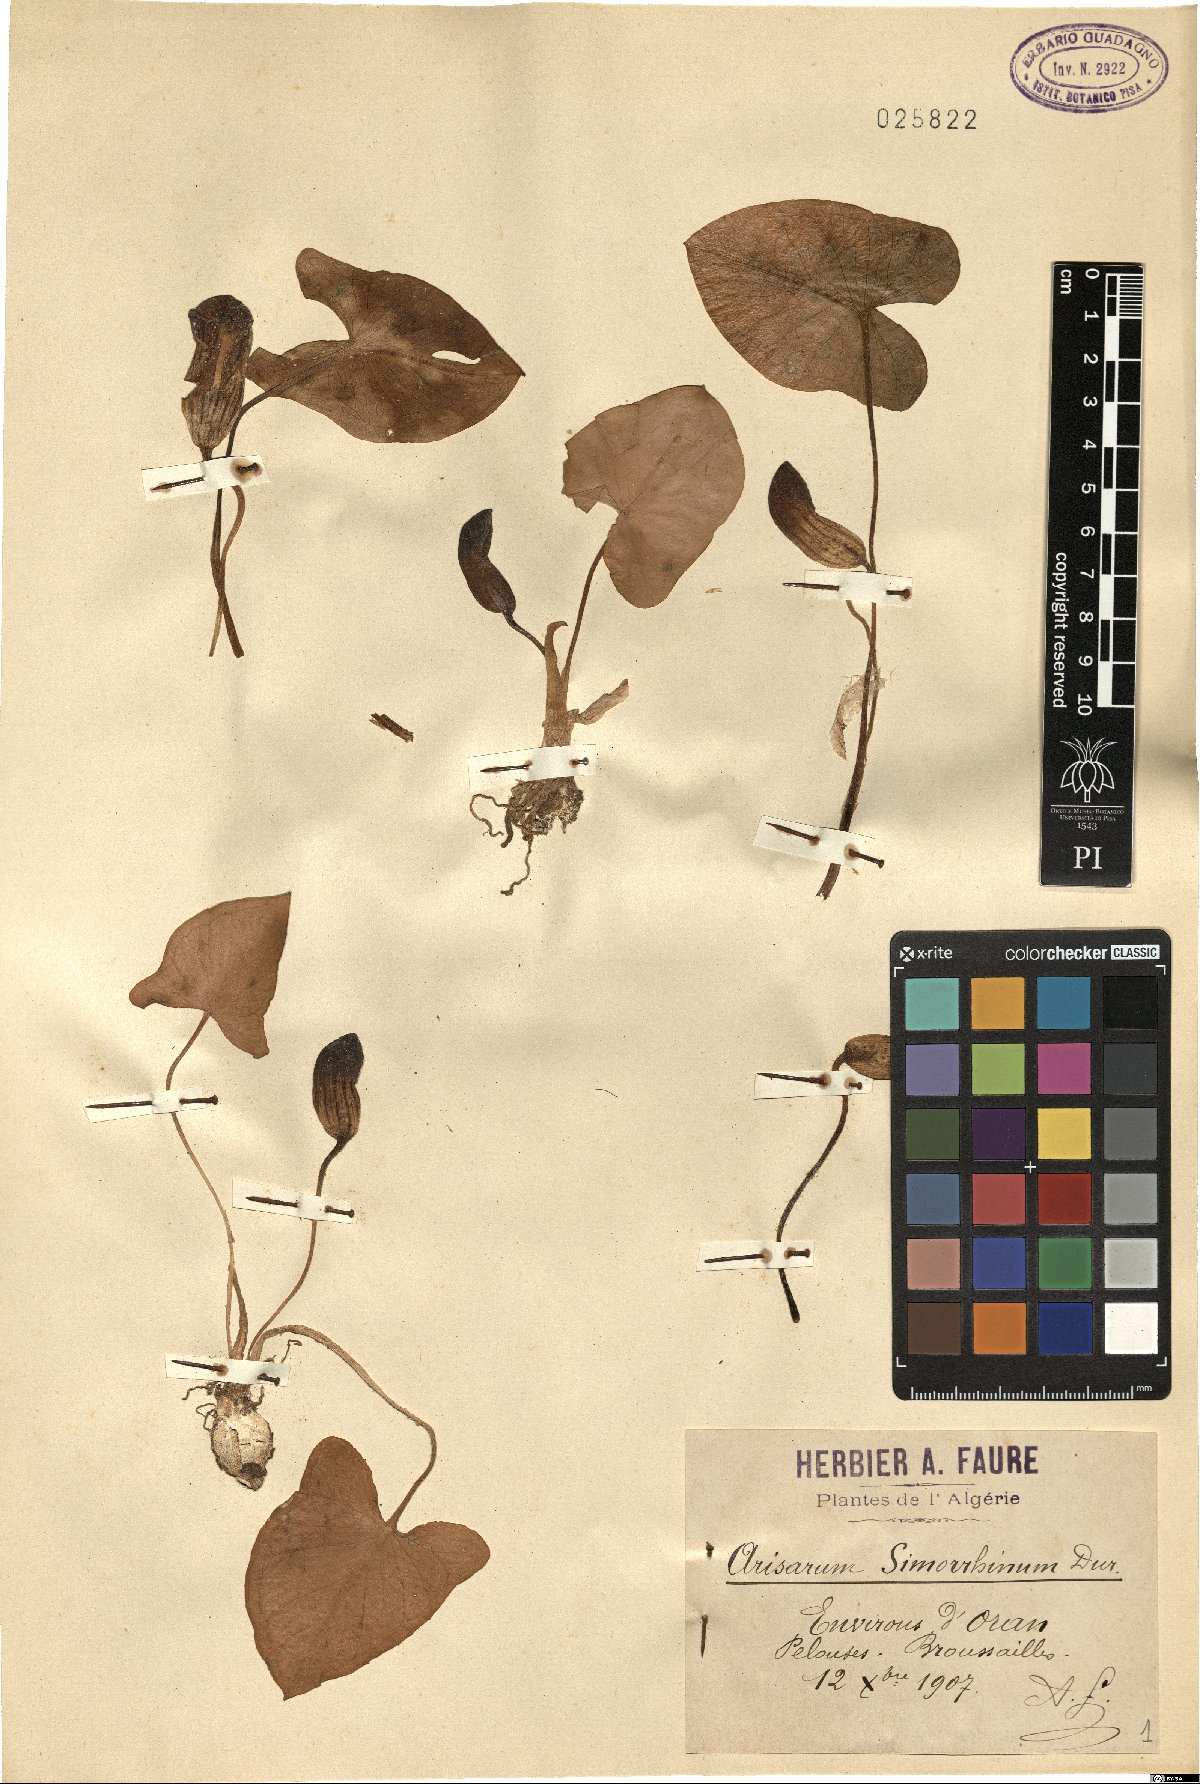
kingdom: Plantae
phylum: Tracheophyta
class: Liliopsida
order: Alismatales
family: Araceae
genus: Arisarum
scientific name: Arisarum simorrhinum
